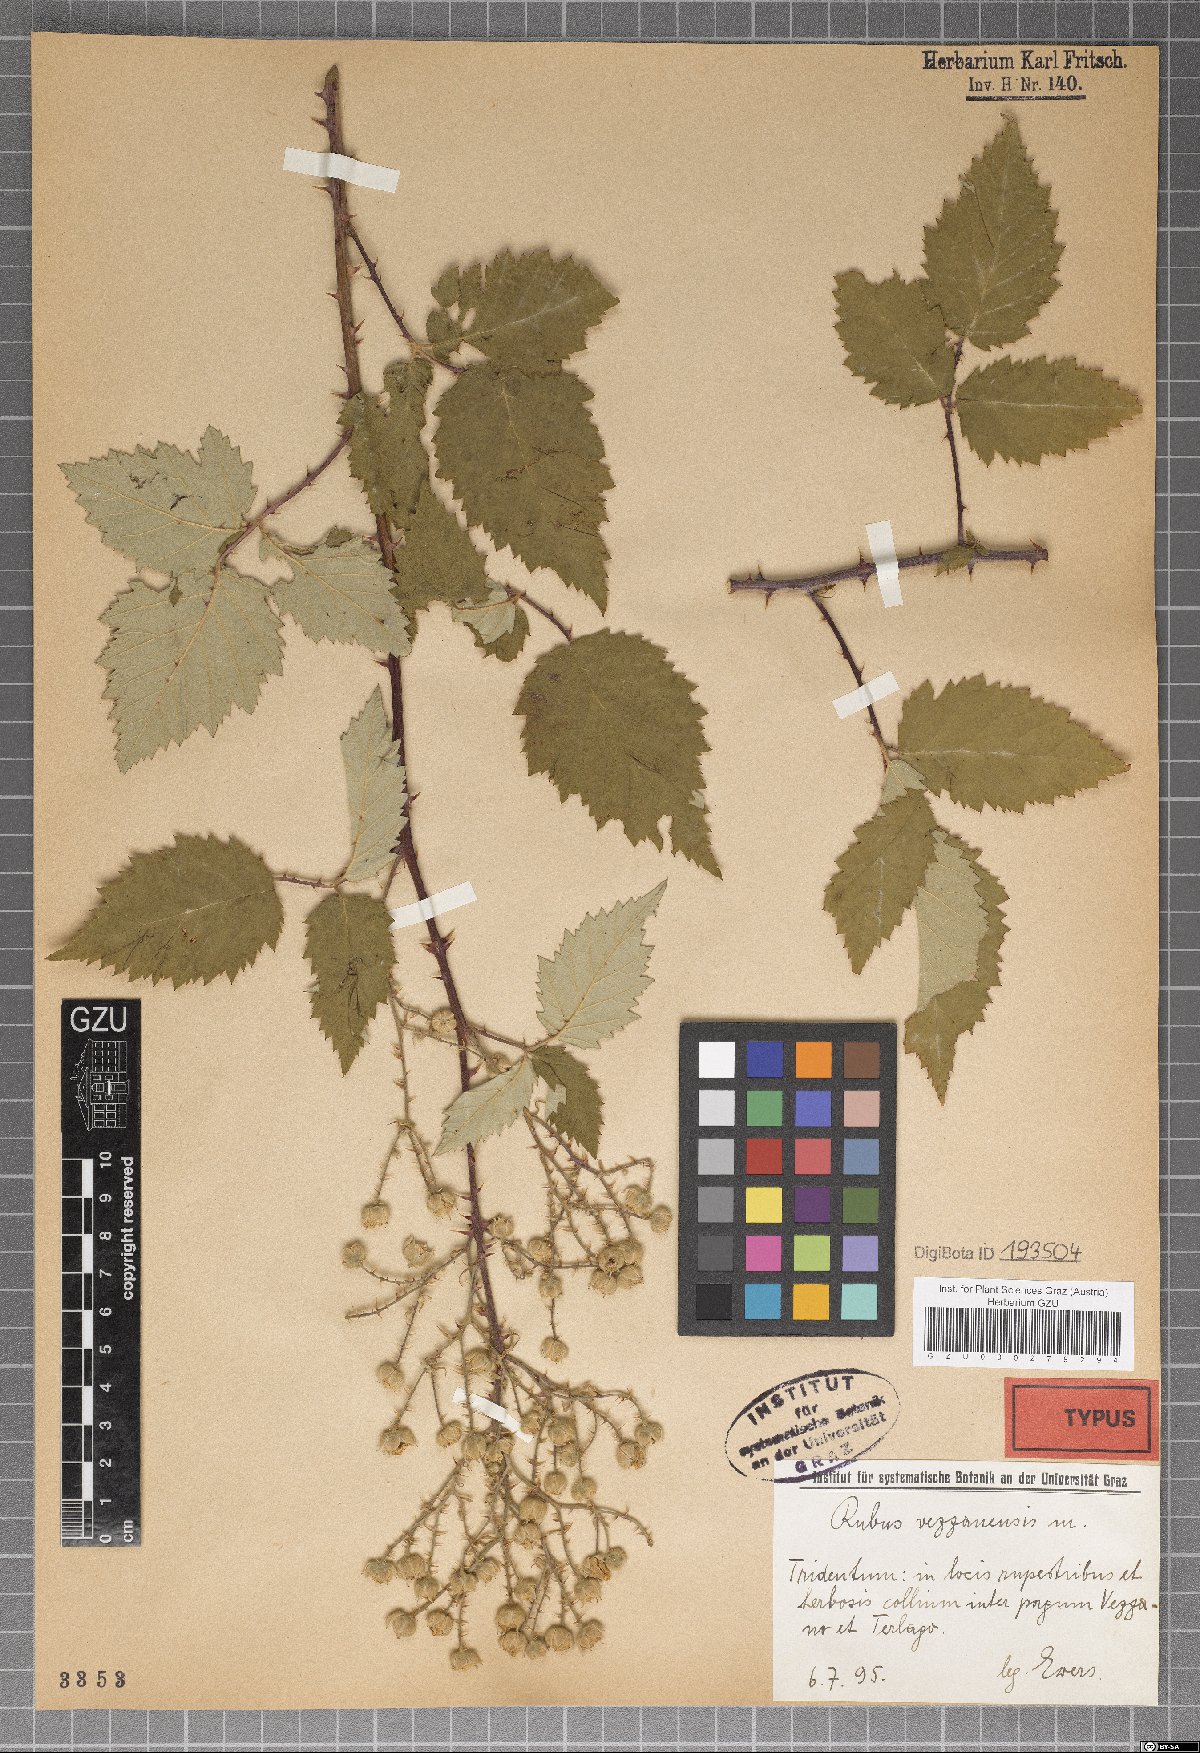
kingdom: Plantae
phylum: Tracheophyta
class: Magnoliopsida
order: Rosales
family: Rosaceae
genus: Rubus
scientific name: Rubus vezzanensis
